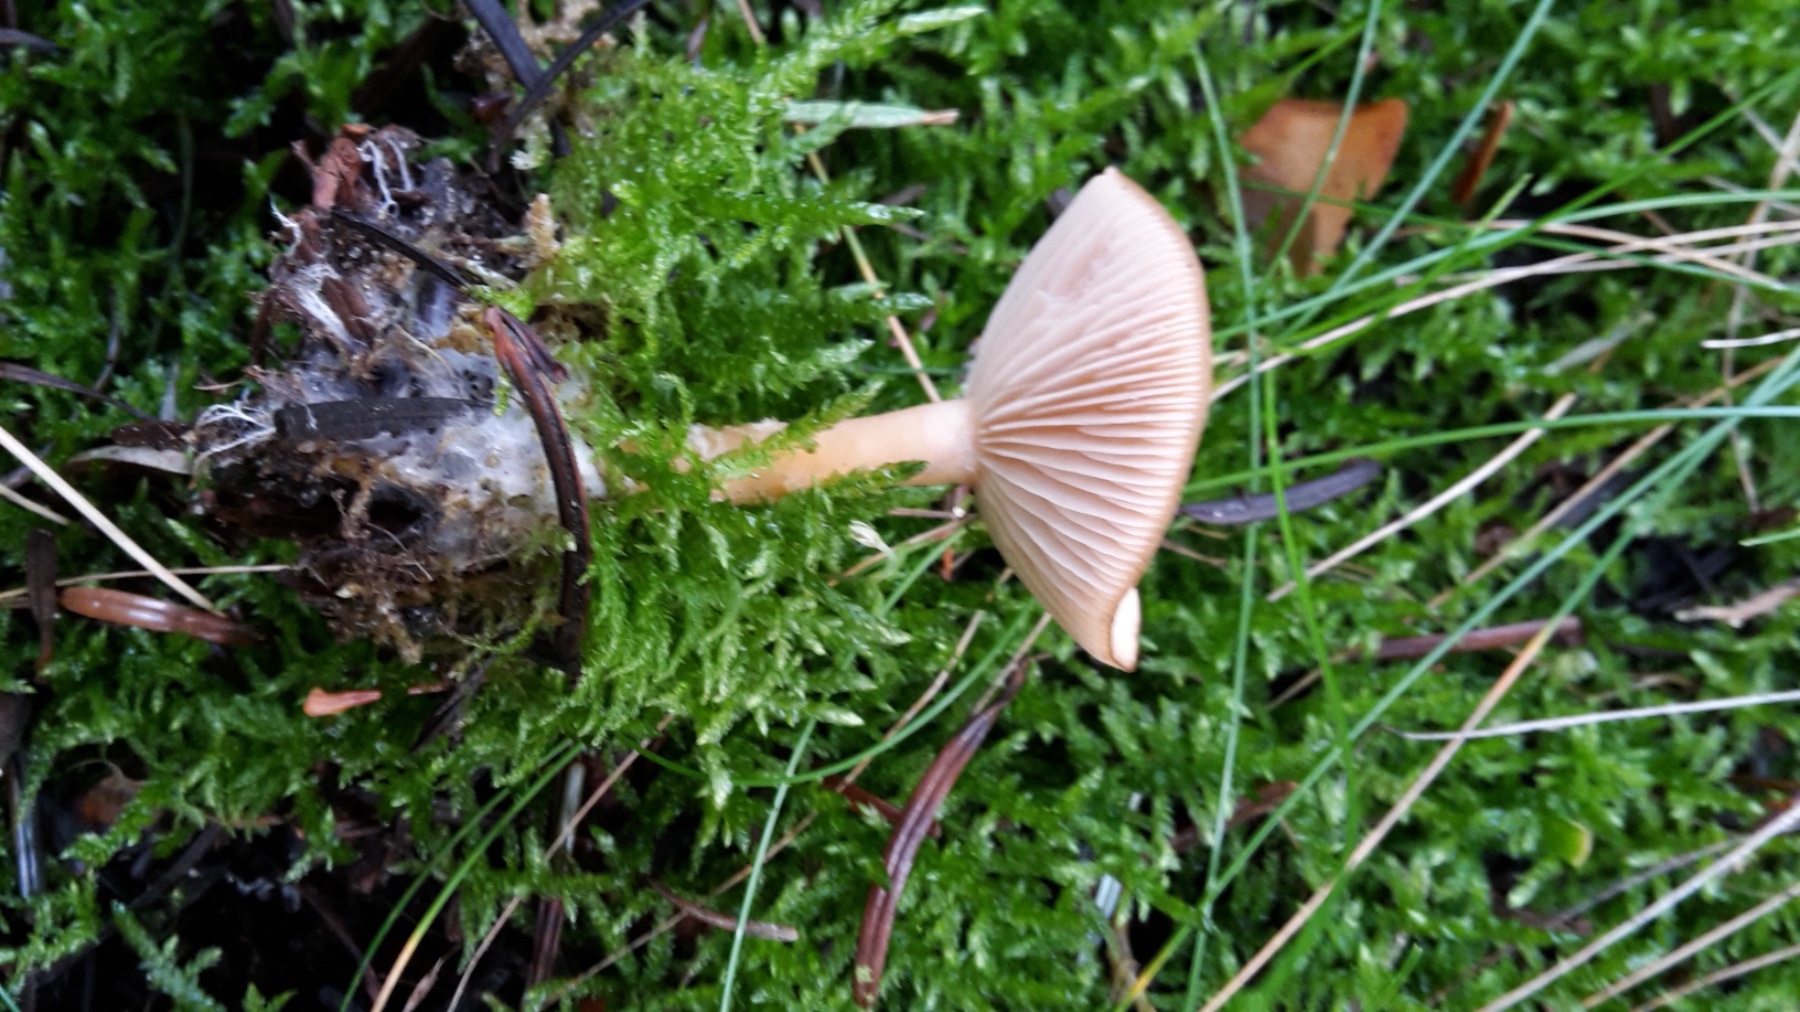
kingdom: Fungi
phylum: Basidiomycota
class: Agaricomycetes
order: Agaricales
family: Tricholomataceae
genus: Clitocybe
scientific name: Clitocybe fragrans
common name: vellugtende tragthat
